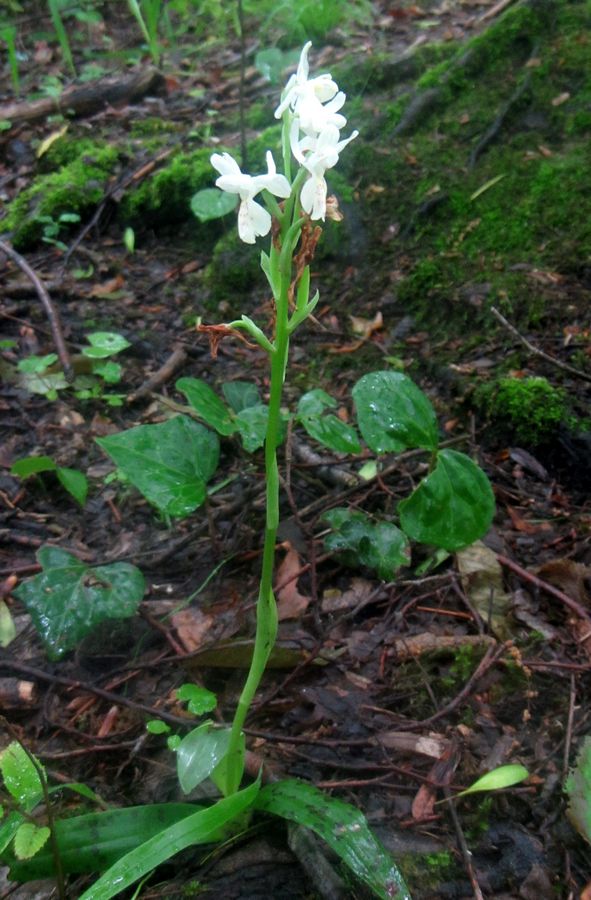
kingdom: Plantae
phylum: Tracheophyta
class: Liliopsida
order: Asparagales
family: Orchidaceae
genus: Orchis
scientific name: Orchis provincialis
